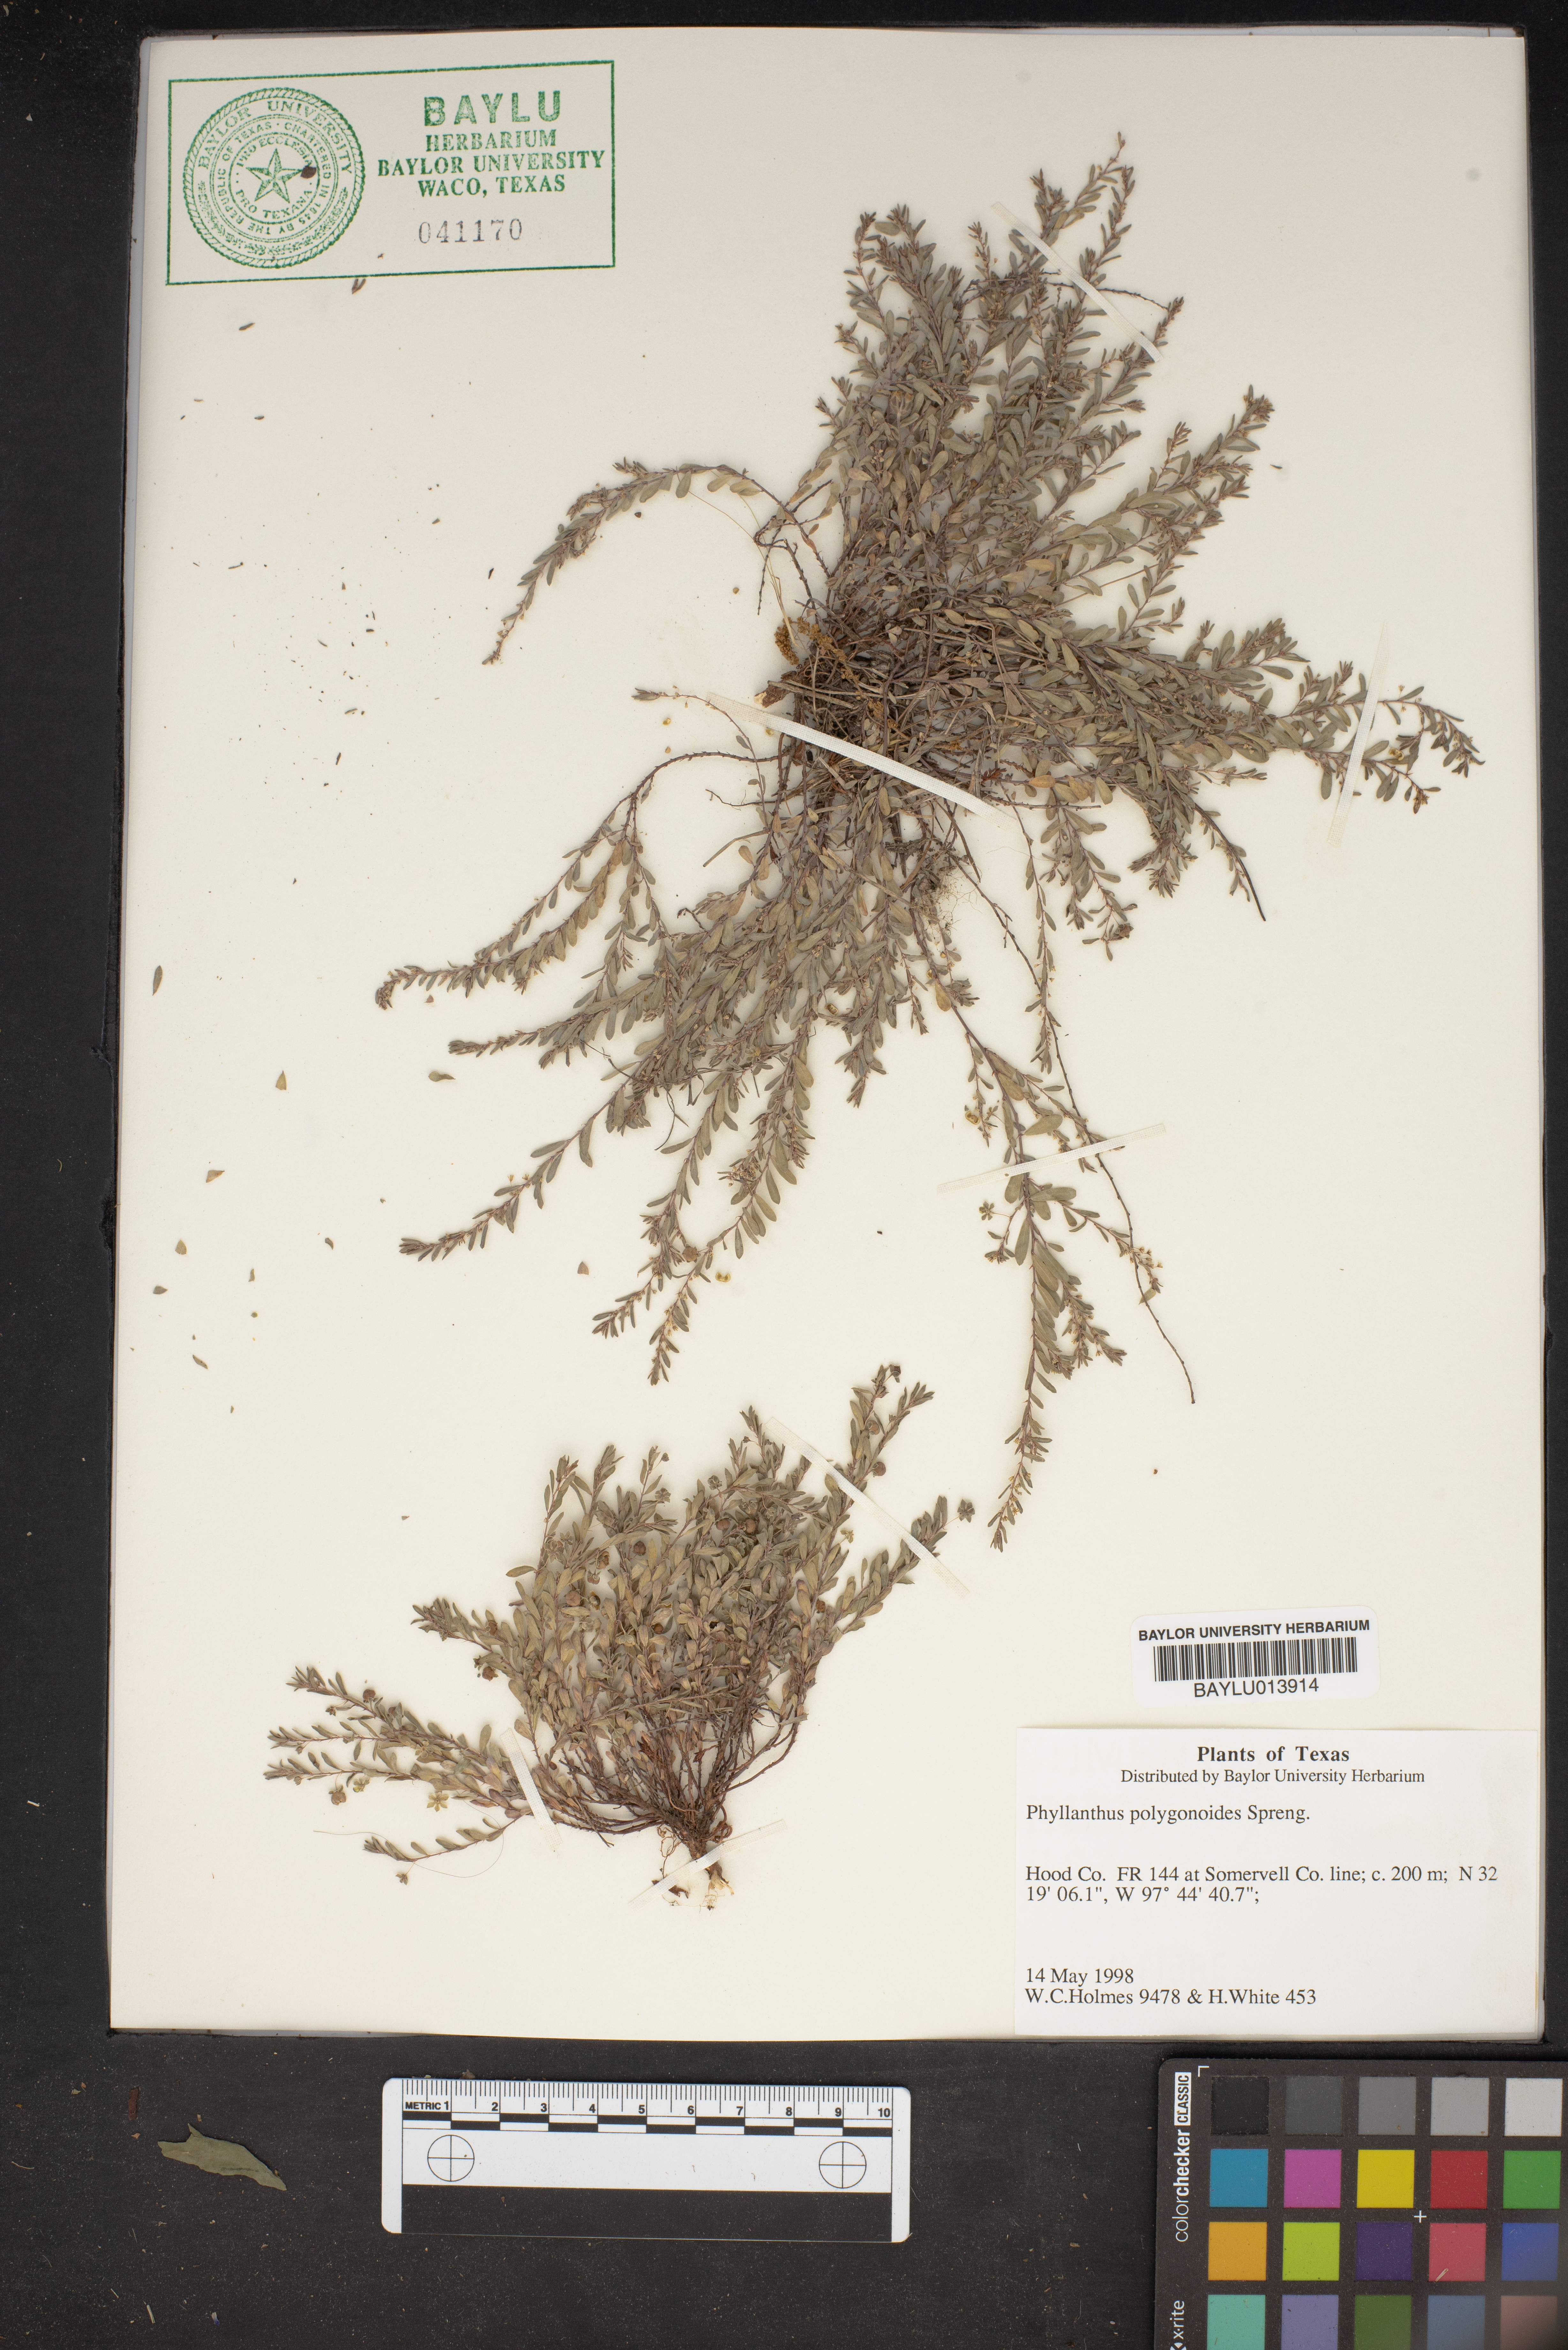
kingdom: Plantae
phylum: Tracheophyta
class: Magnoliopsida
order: Malpighiales
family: Phyllanthaceae
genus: Phyllanthus
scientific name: Phyllanthus polygonoides
